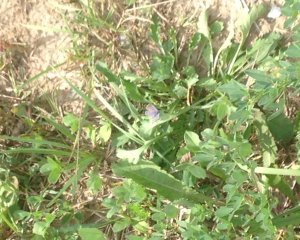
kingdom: Animalia
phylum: Arthropoda
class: Insecta
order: Lepidoptera
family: Lycaenidae
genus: Polyommatus
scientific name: Polyommatus icarus
